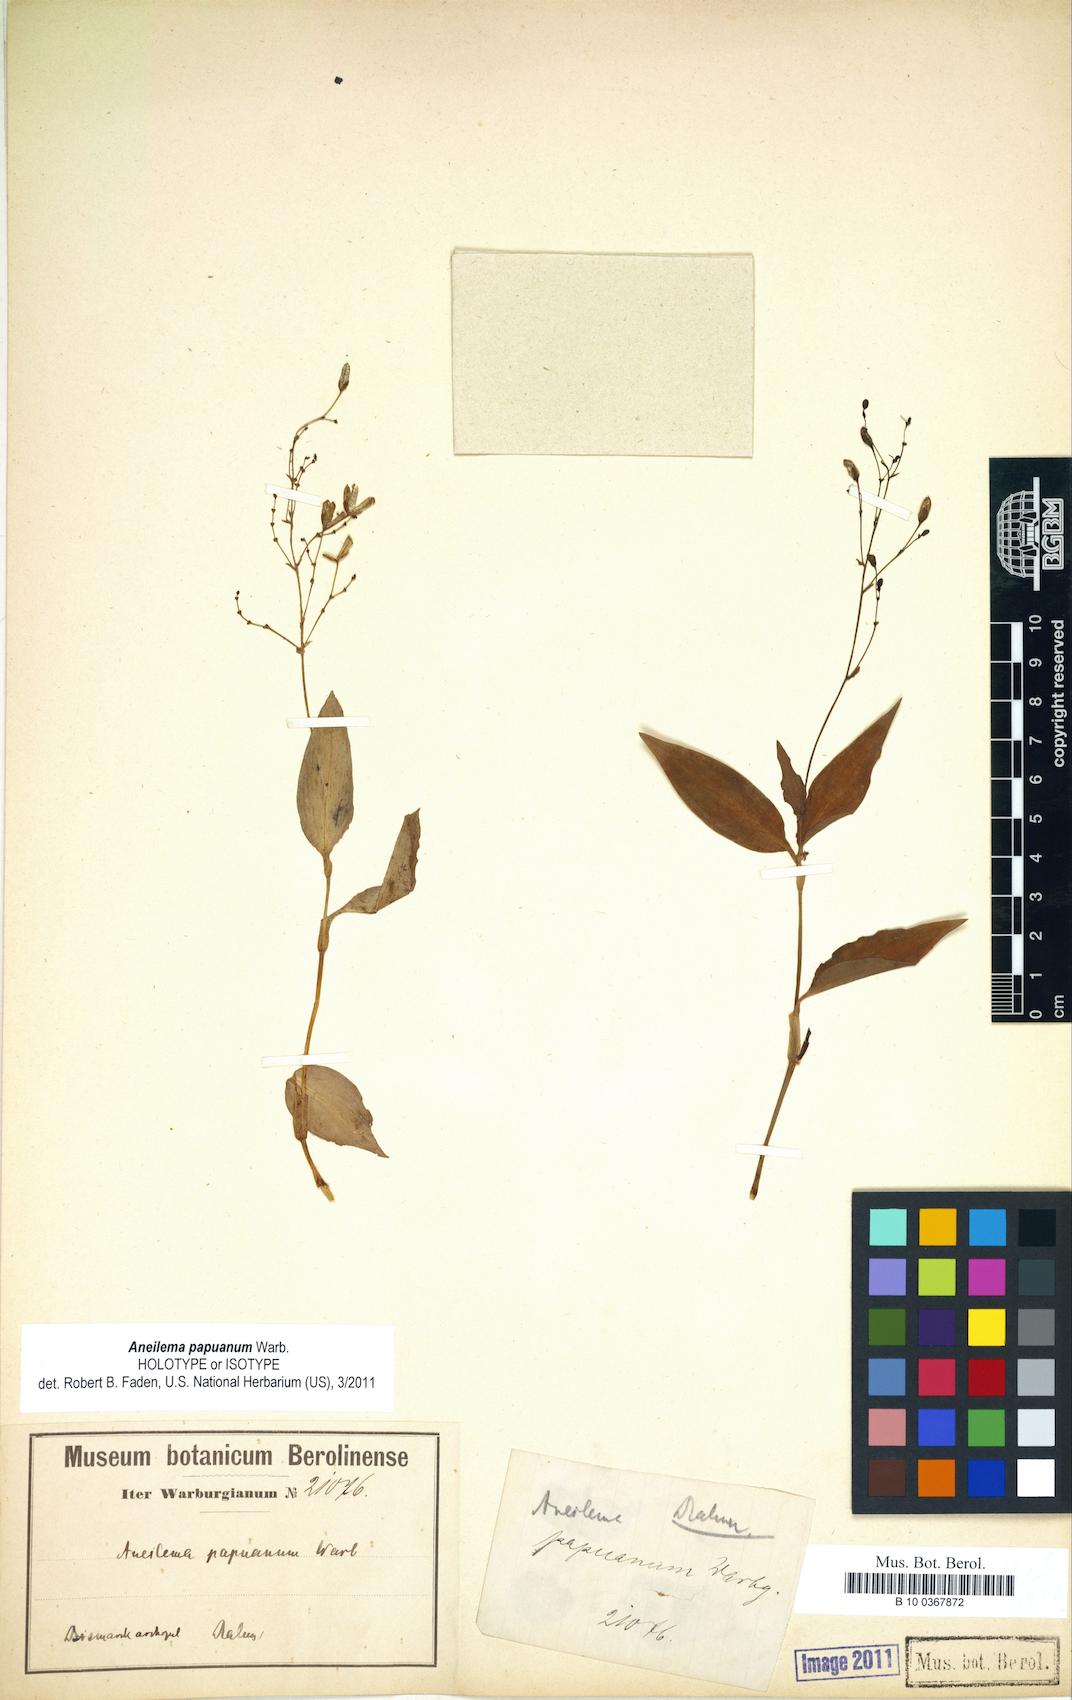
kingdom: Plantae
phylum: Tracheophyta
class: Liliopsida
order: Commelinales
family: Commelinaceae
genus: Aneilema
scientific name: Aneilema acuminatum
